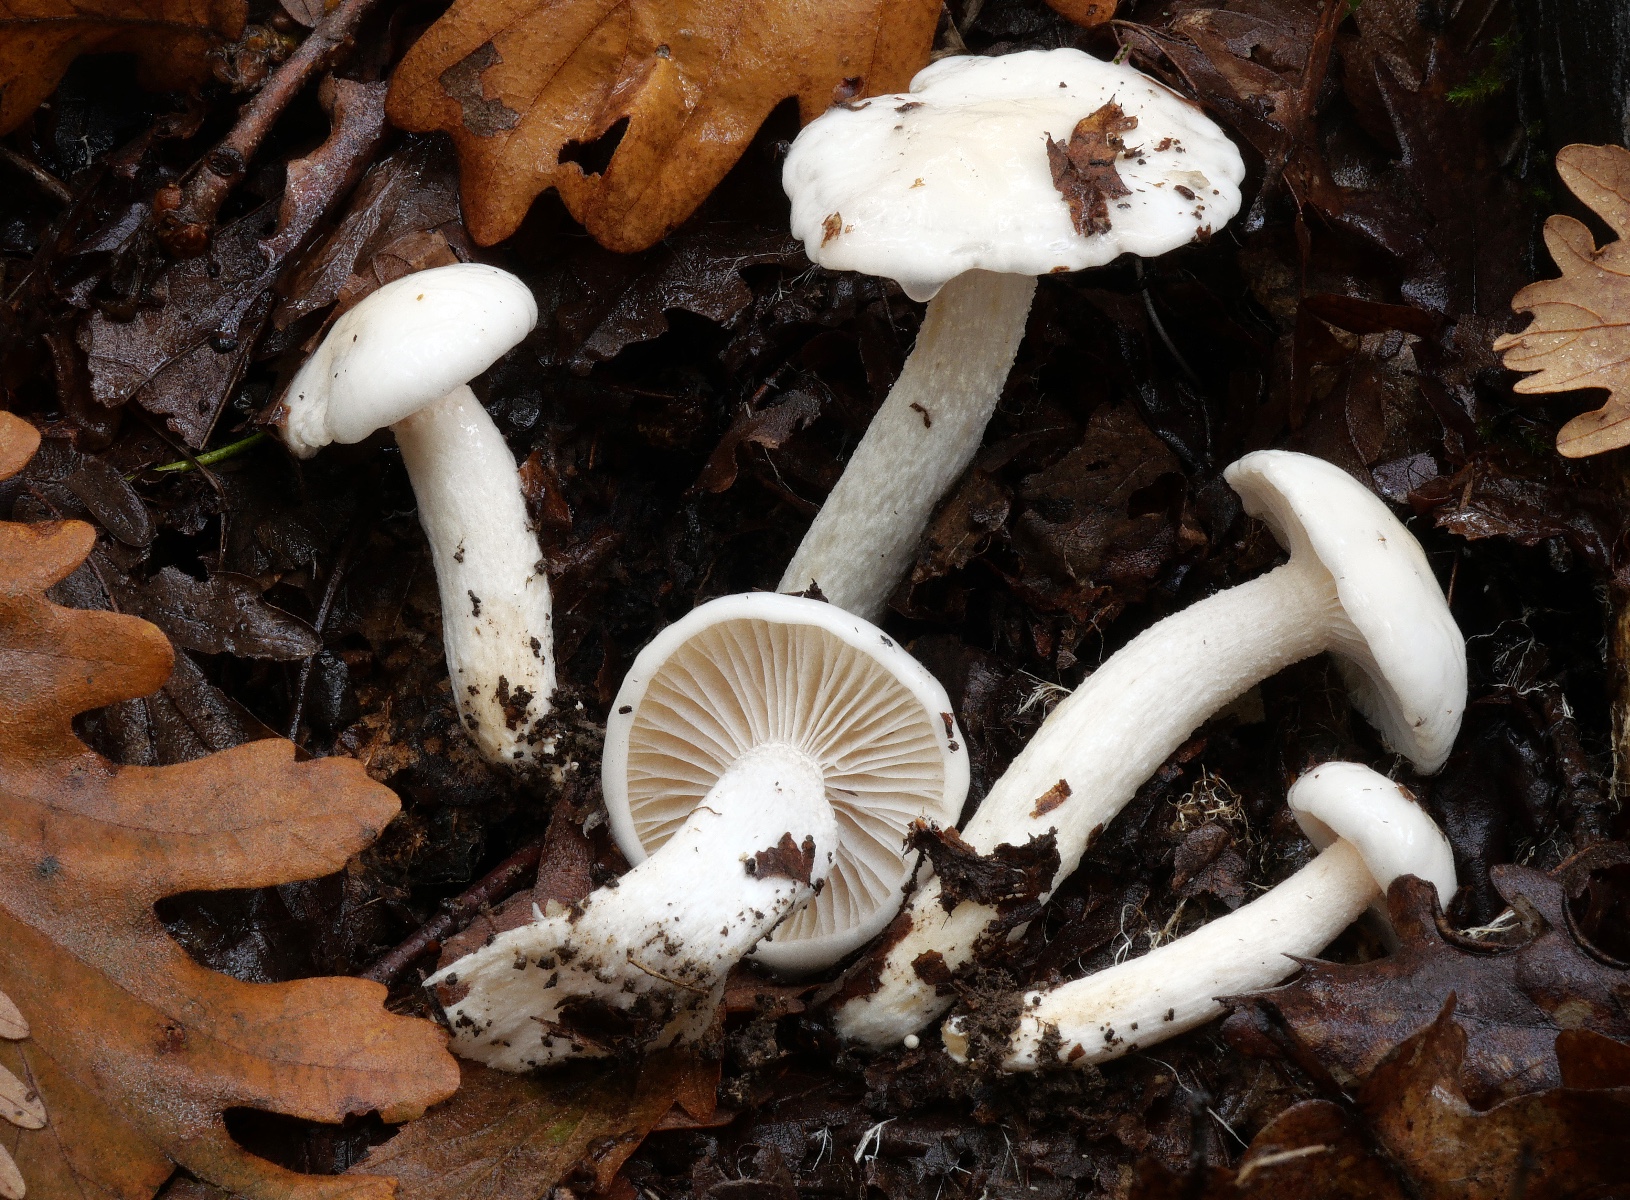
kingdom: Fungi
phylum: Basidiomycota
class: Agaricomycetes
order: Agaricales
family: Hygrophoraceae
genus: Hygrophorus
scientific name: Hygrophorus cossus
